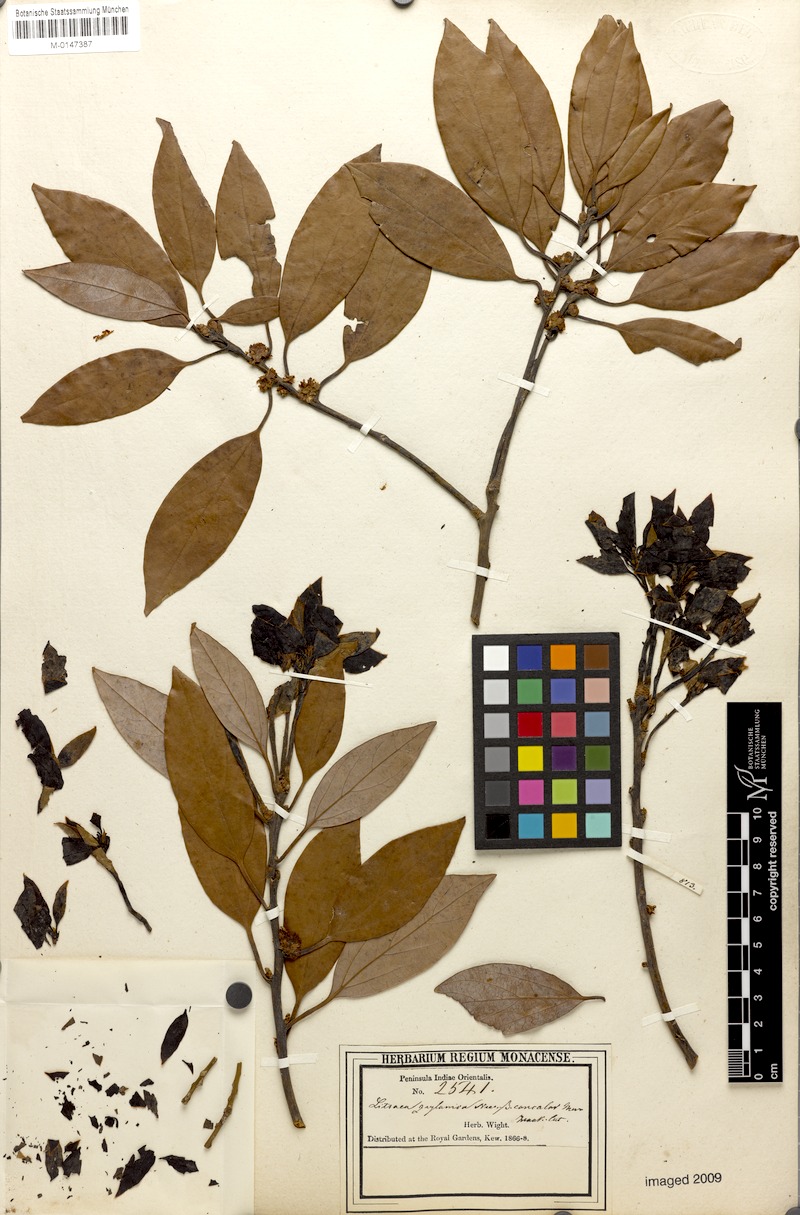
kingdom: Plantae
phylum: Tracheophyta
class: Magnoliopsida
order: Laurales
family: Lauraceae
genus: Neolitsea
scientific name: Neolitsea foliosa
